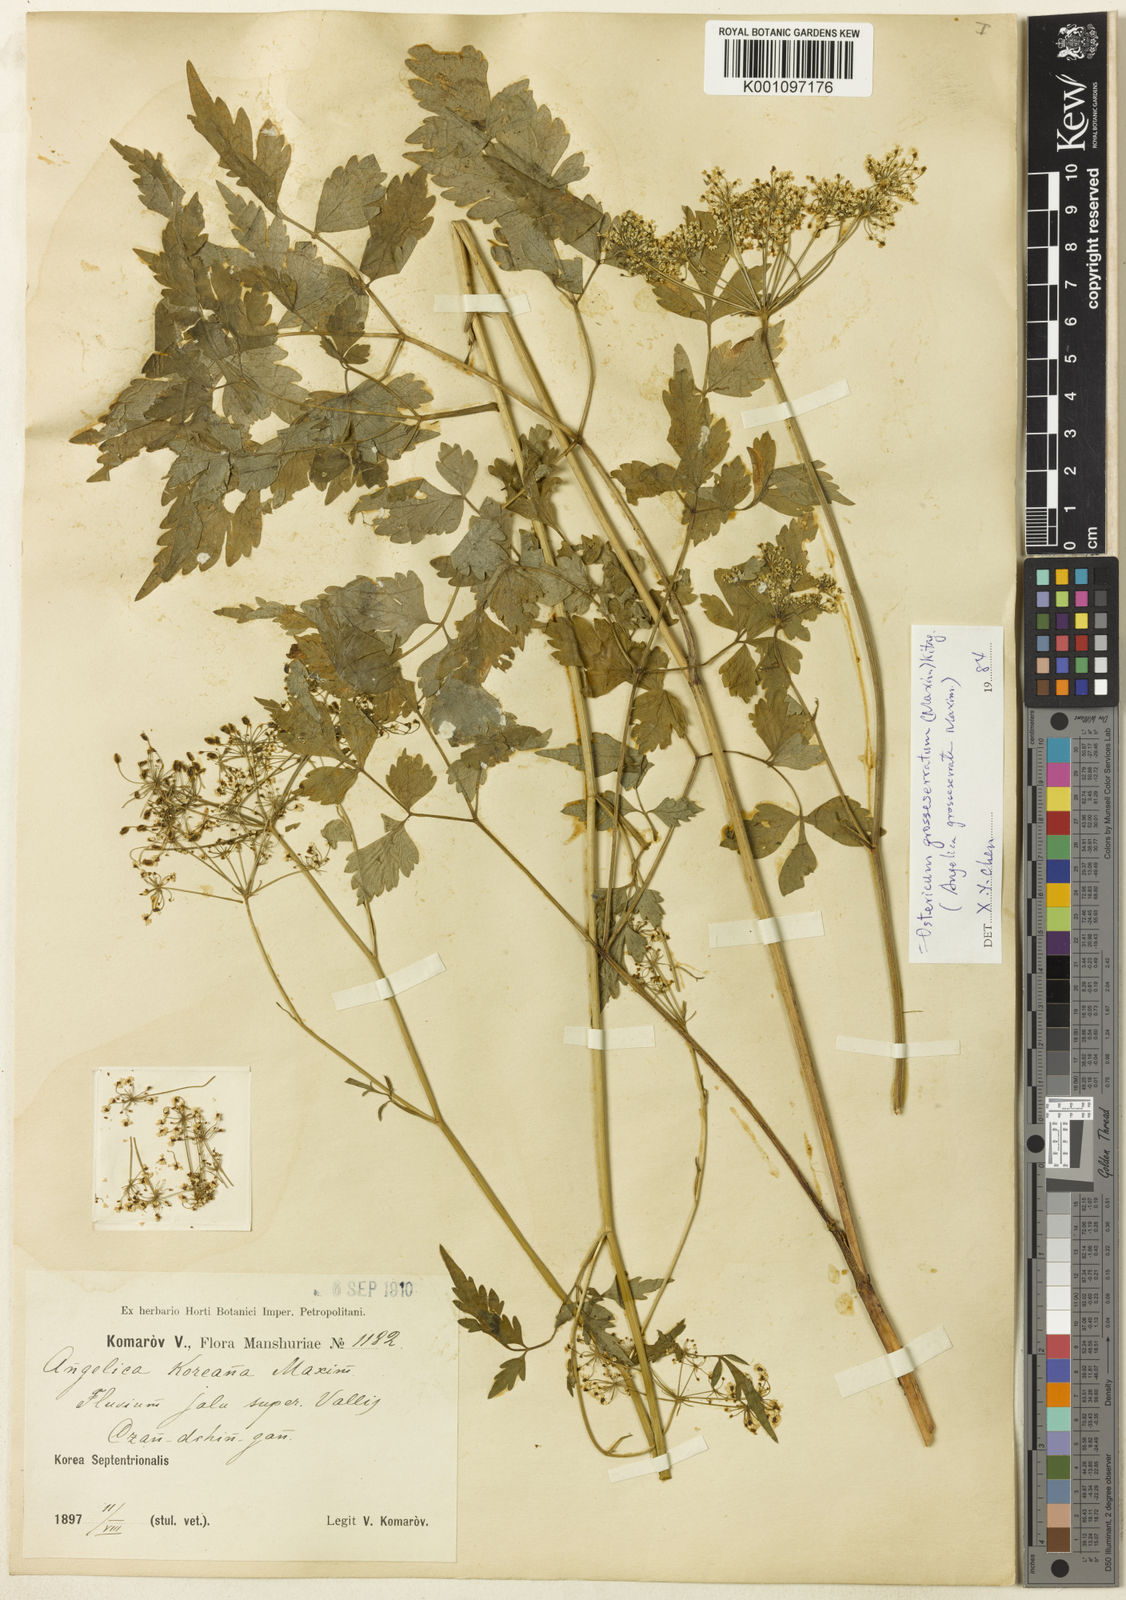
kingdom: Plantae
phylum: Tracheophyta
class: Magnoliopsida
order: Apiales
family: Apiaceae
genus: Ostericum
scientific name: Ostericum grosseserratum
